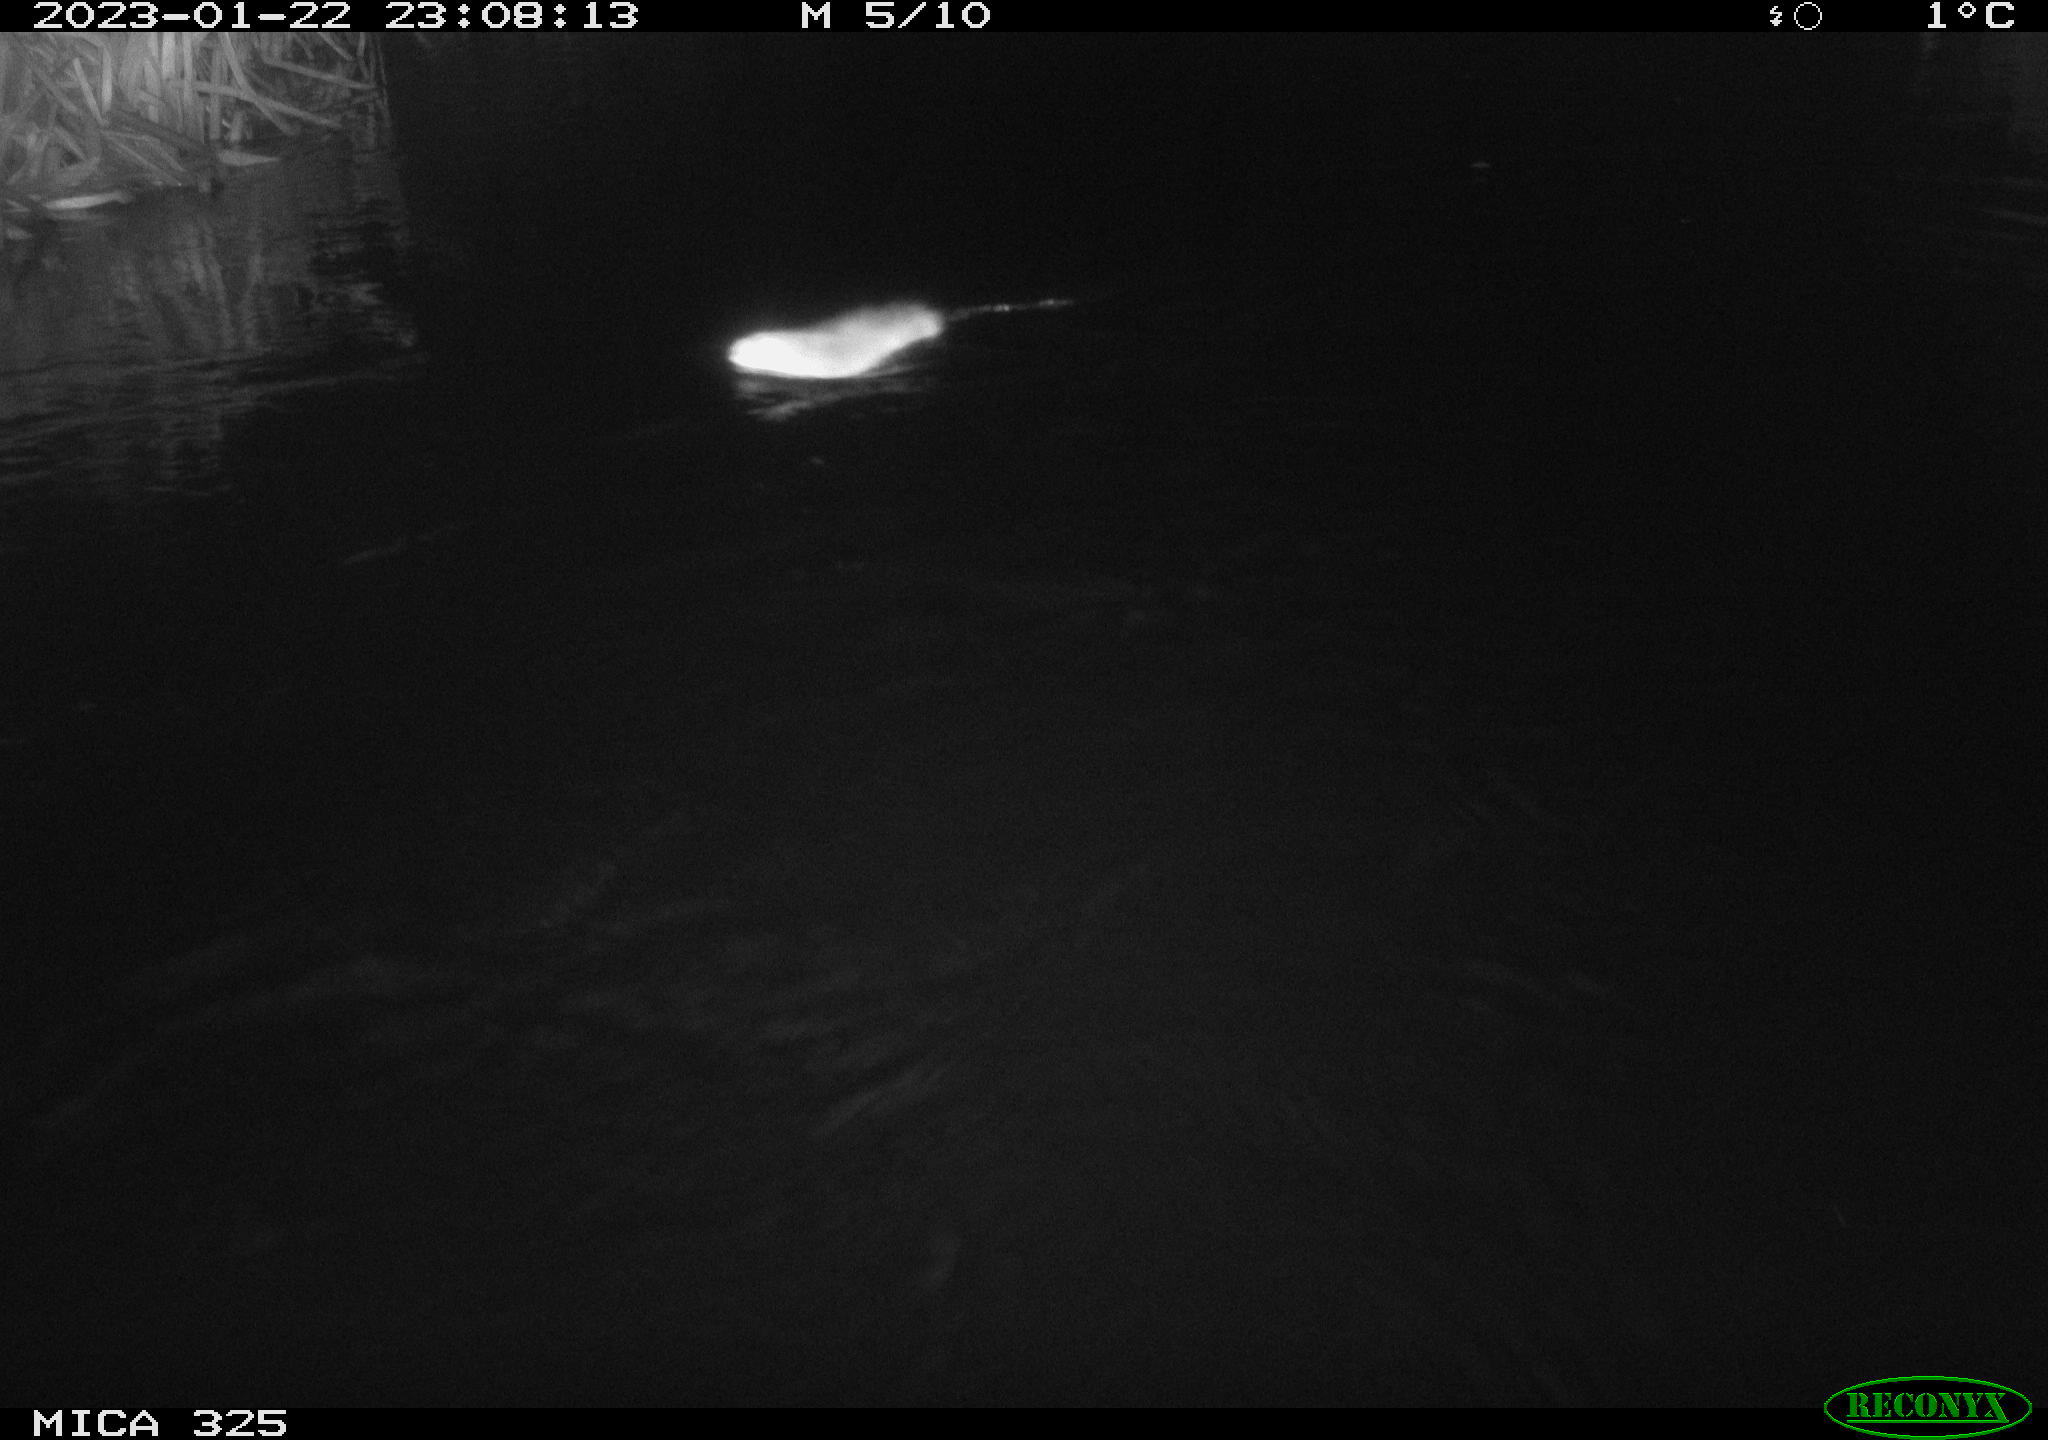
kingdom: Animalia
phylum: Chordata
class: Mammalia
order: Rodentia
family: Cricetidae
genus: Ondatra
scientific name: Ondatra zibethicus
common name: Muskrat
